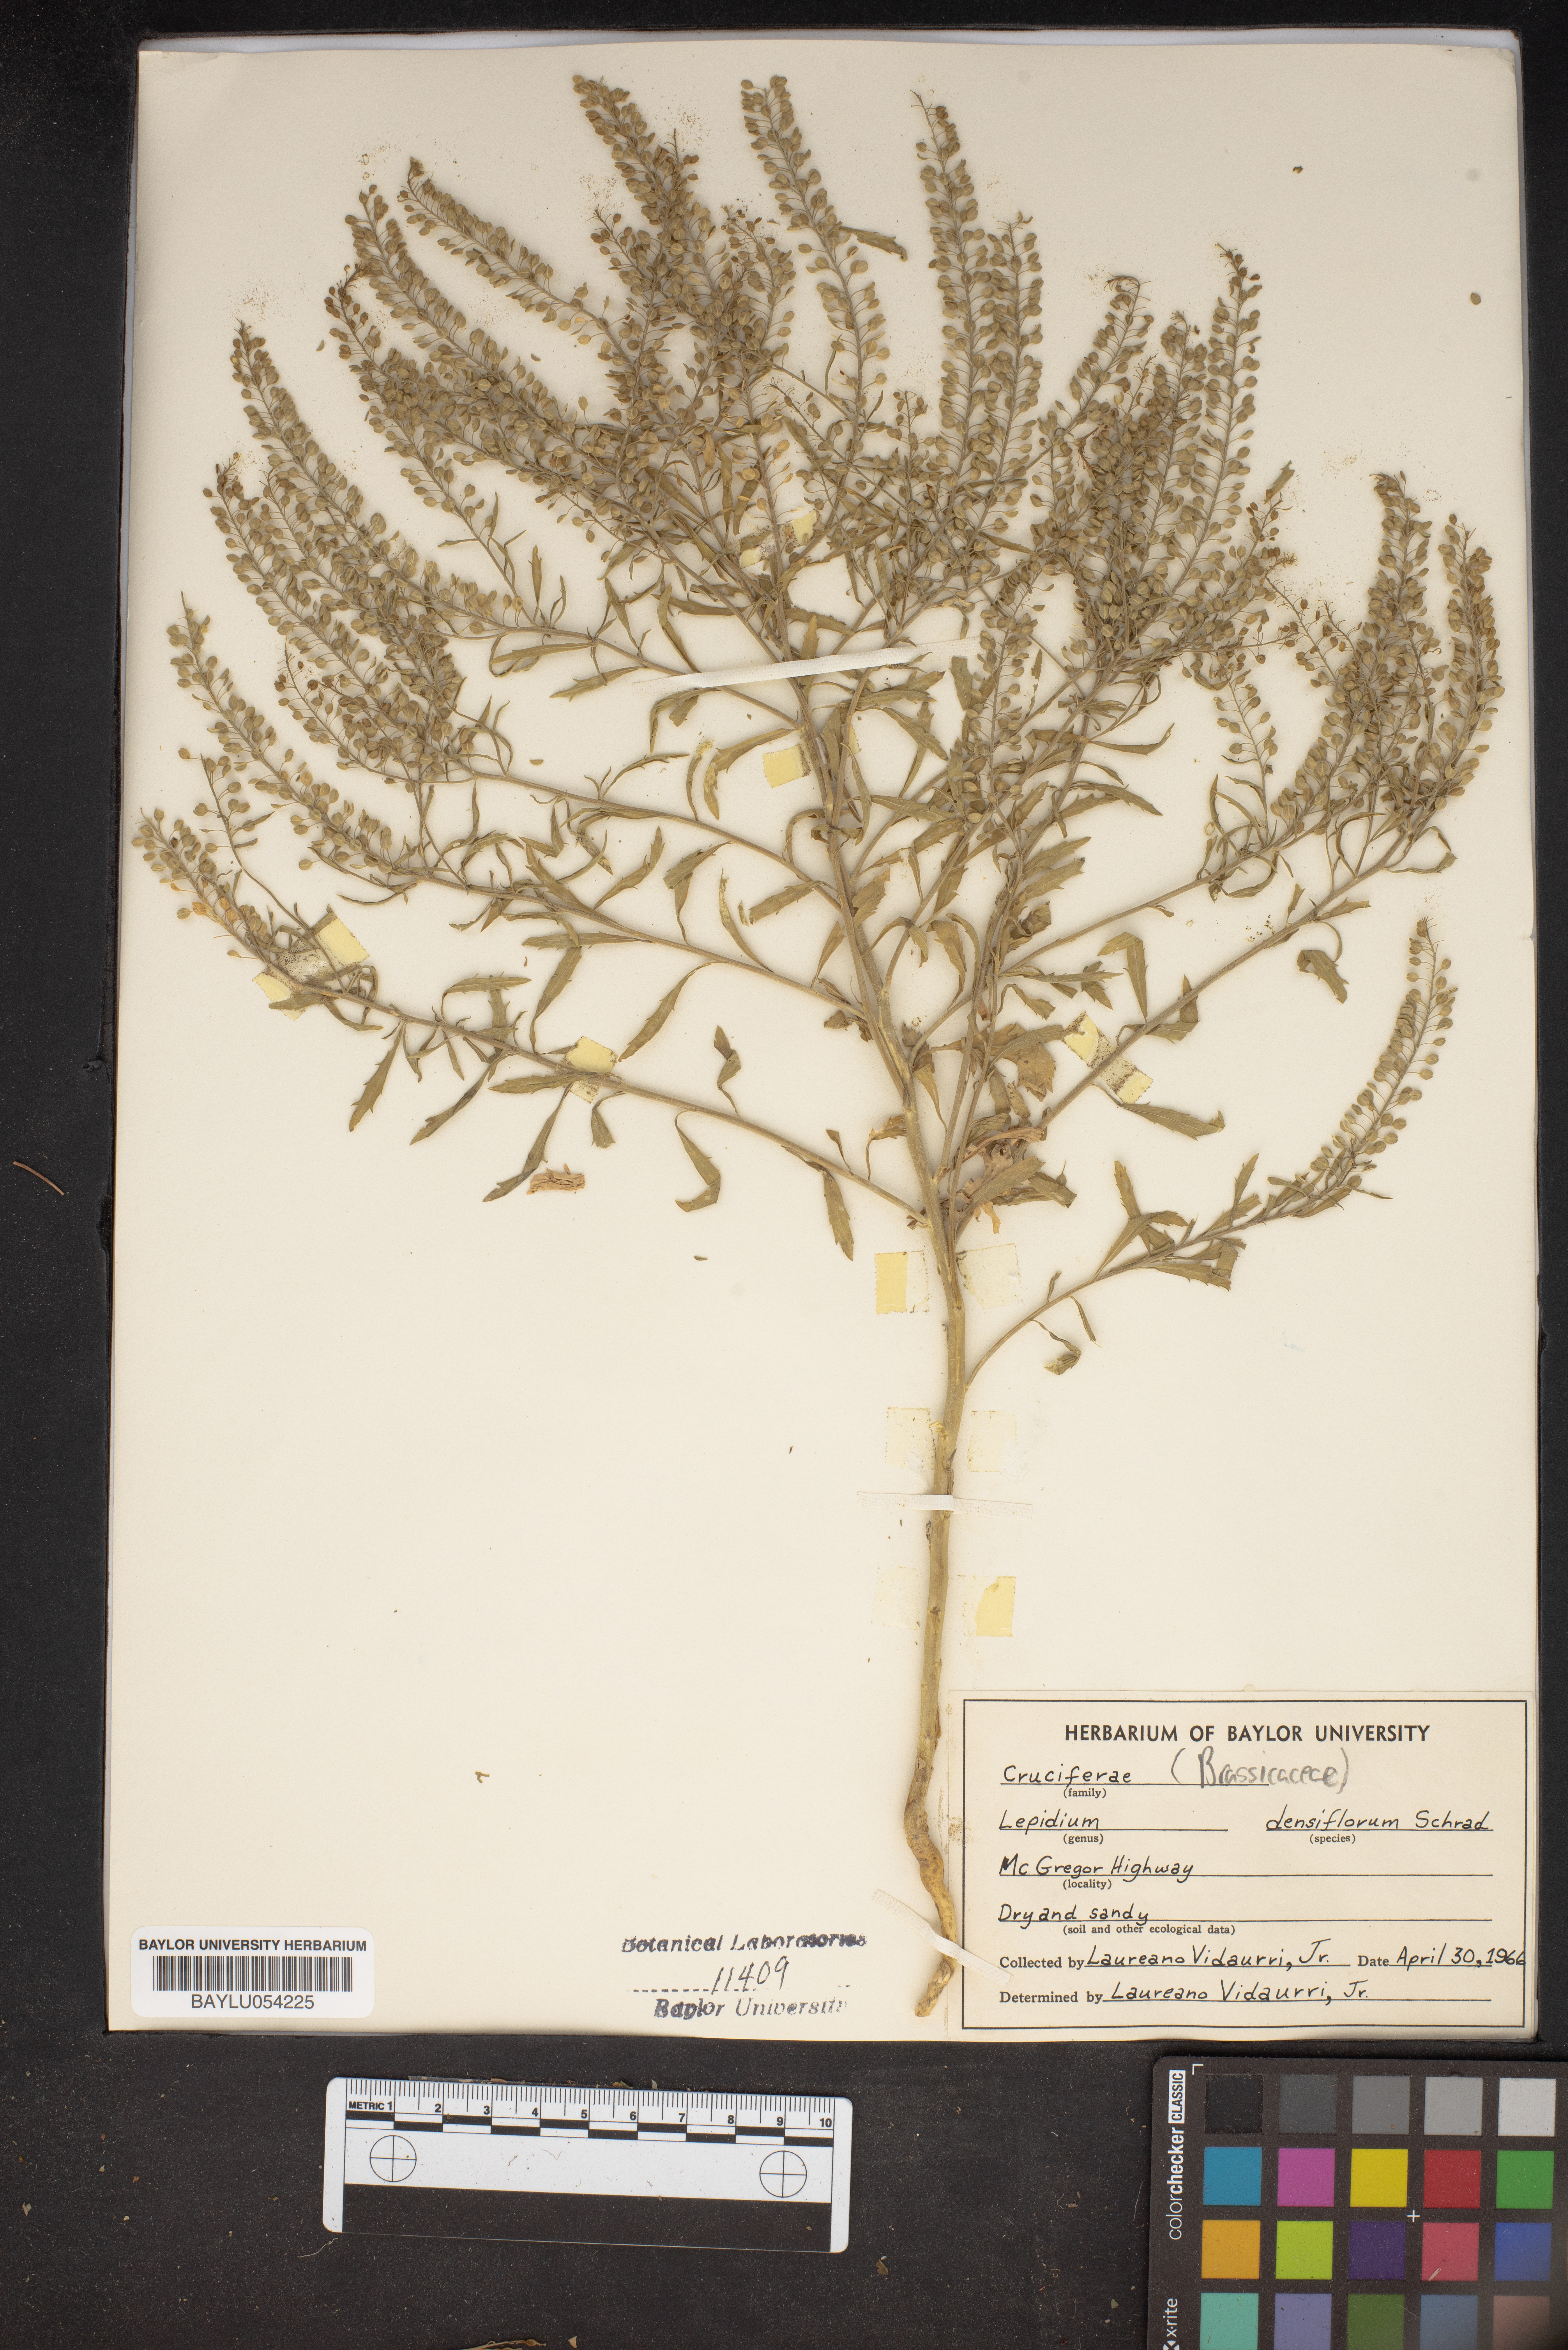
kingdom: Plantae
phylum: Tracheophyta
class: Magnoliopsida
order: Brassicales
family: Brassicaceae
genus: Lepidium
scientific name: Lepidium densiflorum
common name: Miner's pepperwort
